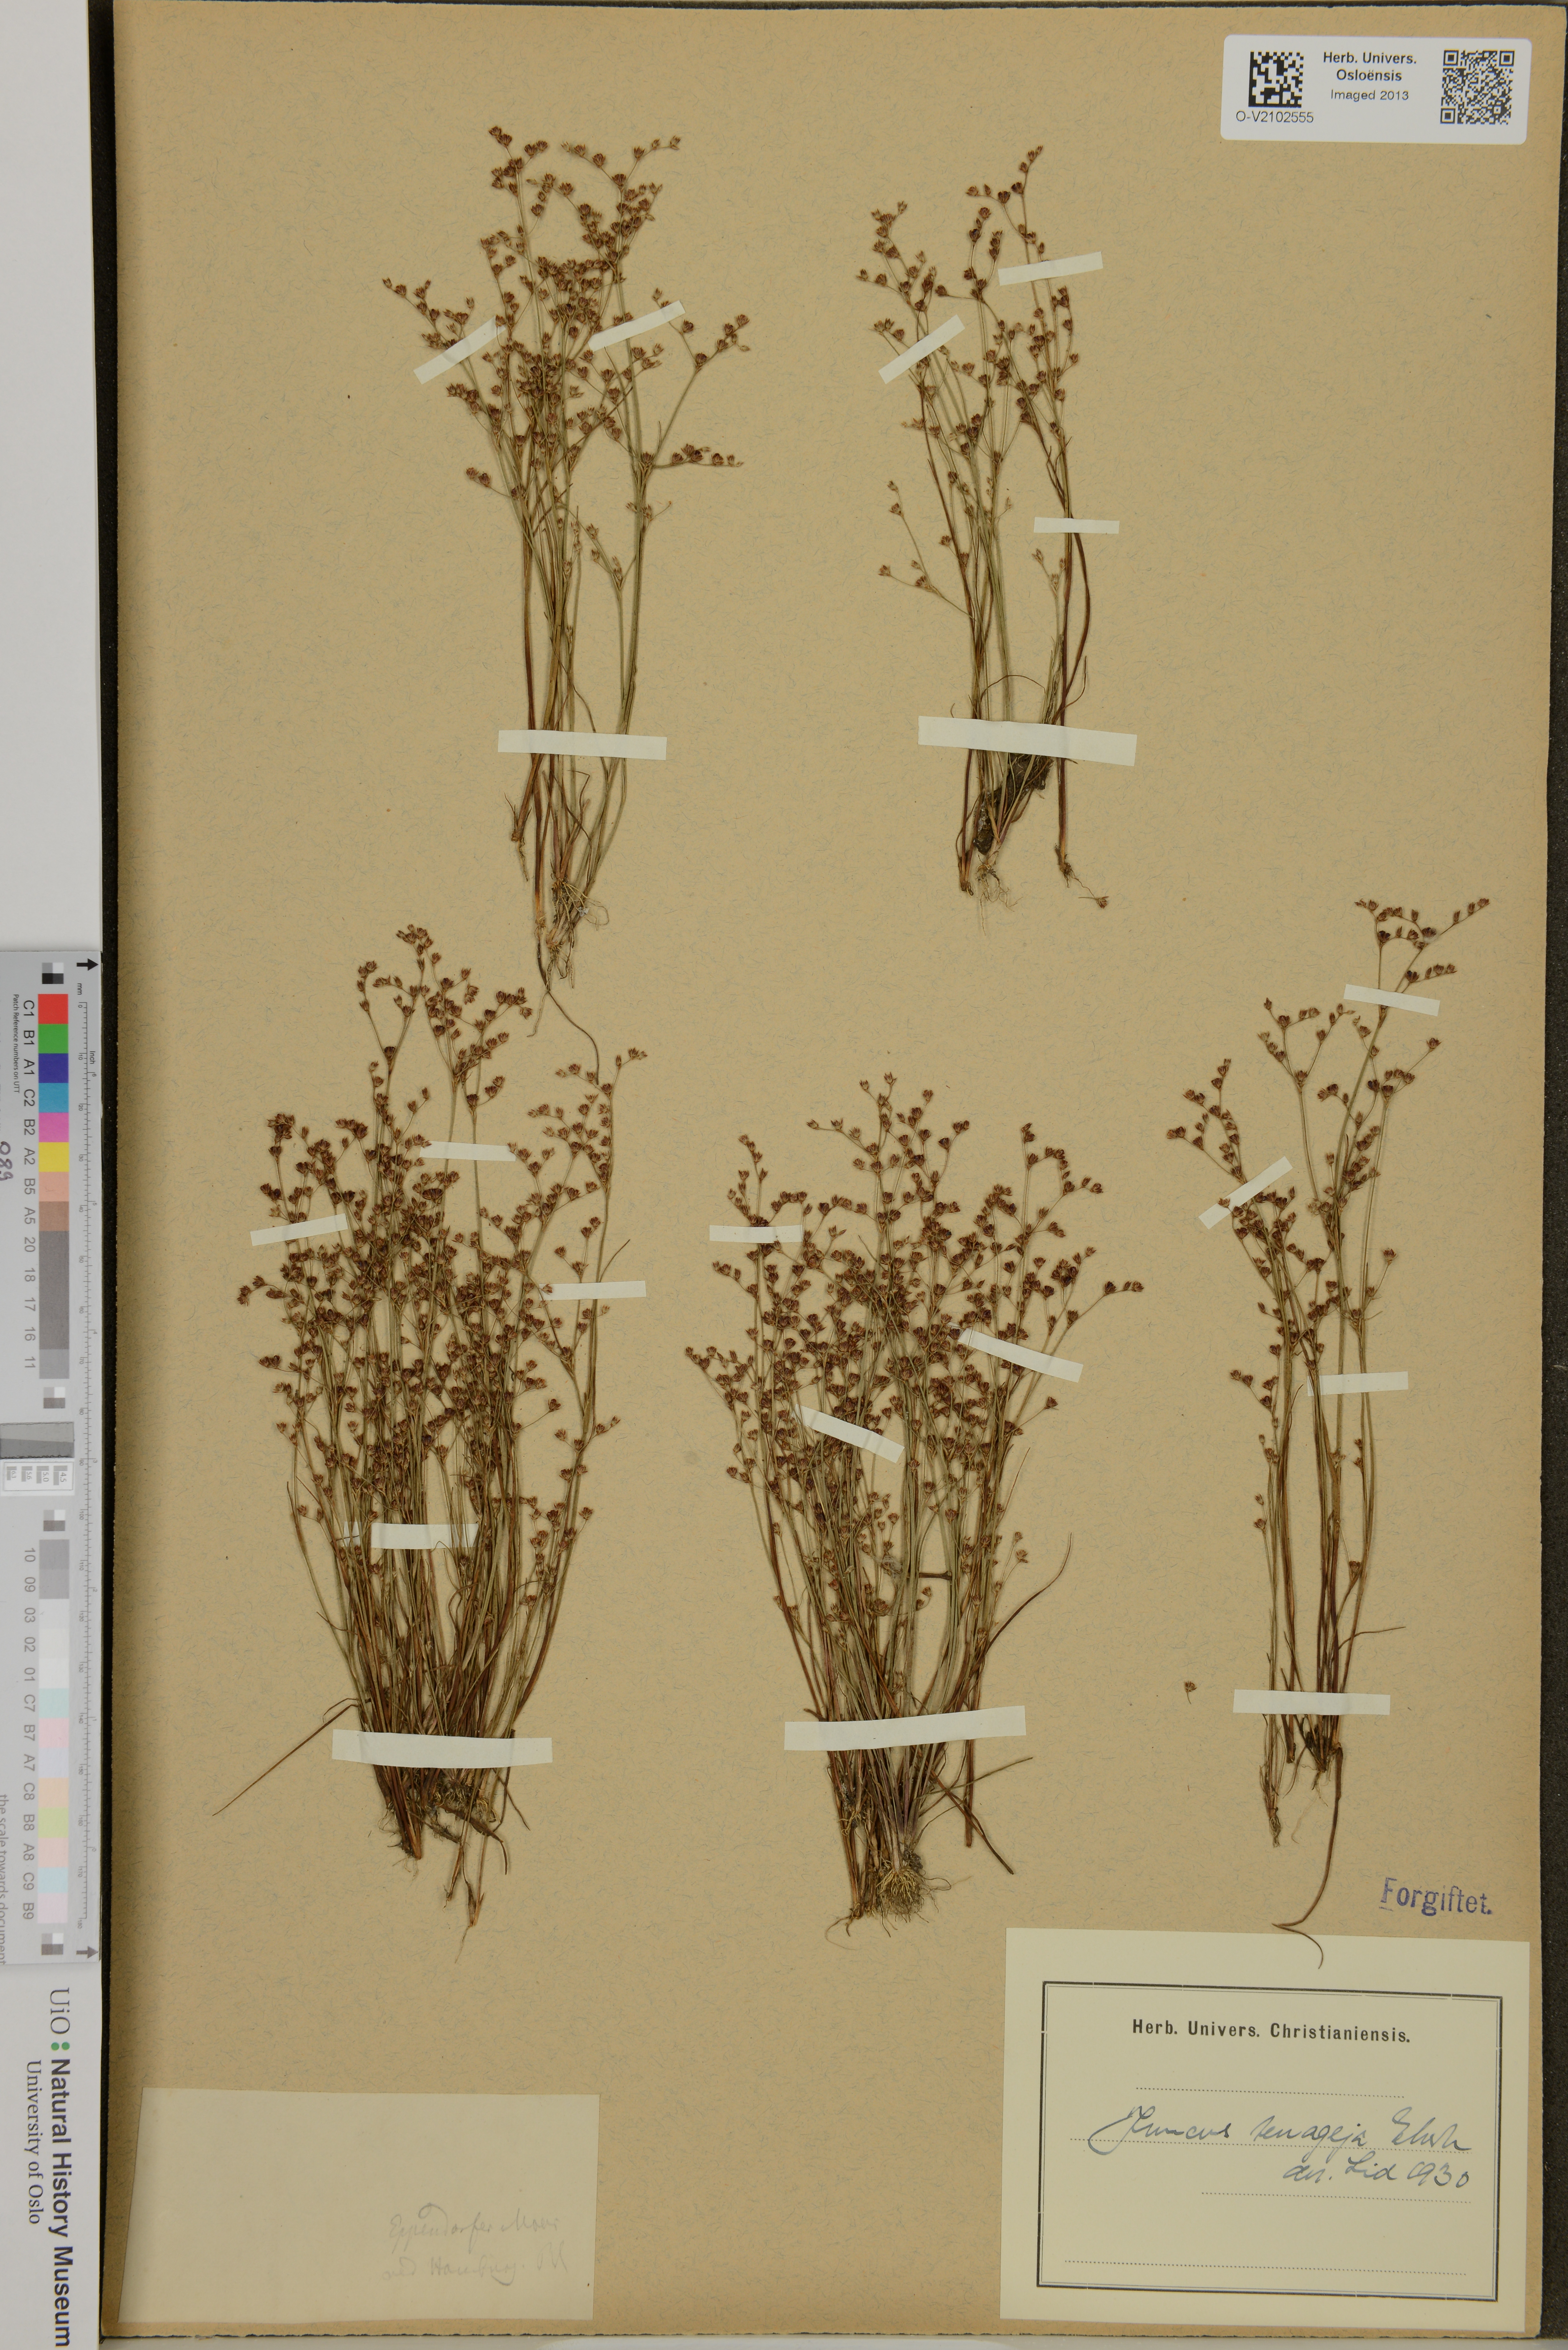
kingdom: Plantae
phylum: Tracheophyta
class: Liliopsida
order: Poales
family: Juncaceae
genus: Juncus
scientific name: Juncus tenageia
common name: Sand rush
